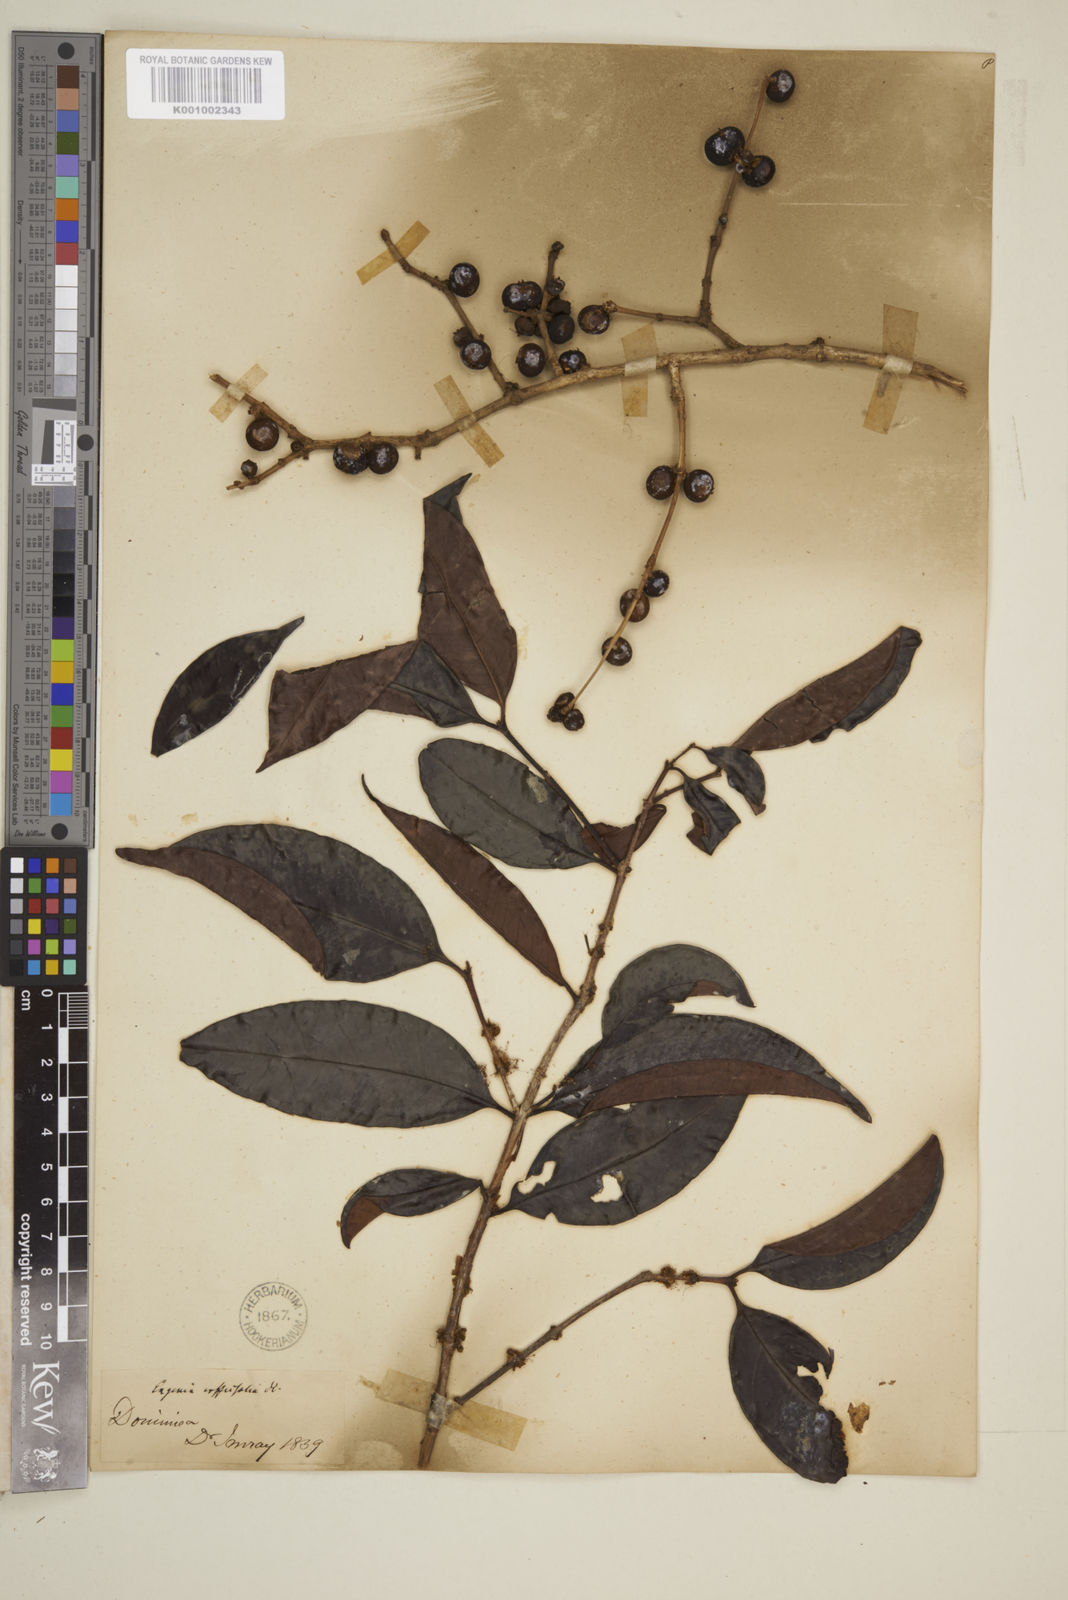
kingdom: Plantae
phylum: Tracheophyta
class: Magnoliopsida
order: Myrtales
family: Myrtaceae
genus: Eugenia
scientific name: Eugenia coffeifolia
